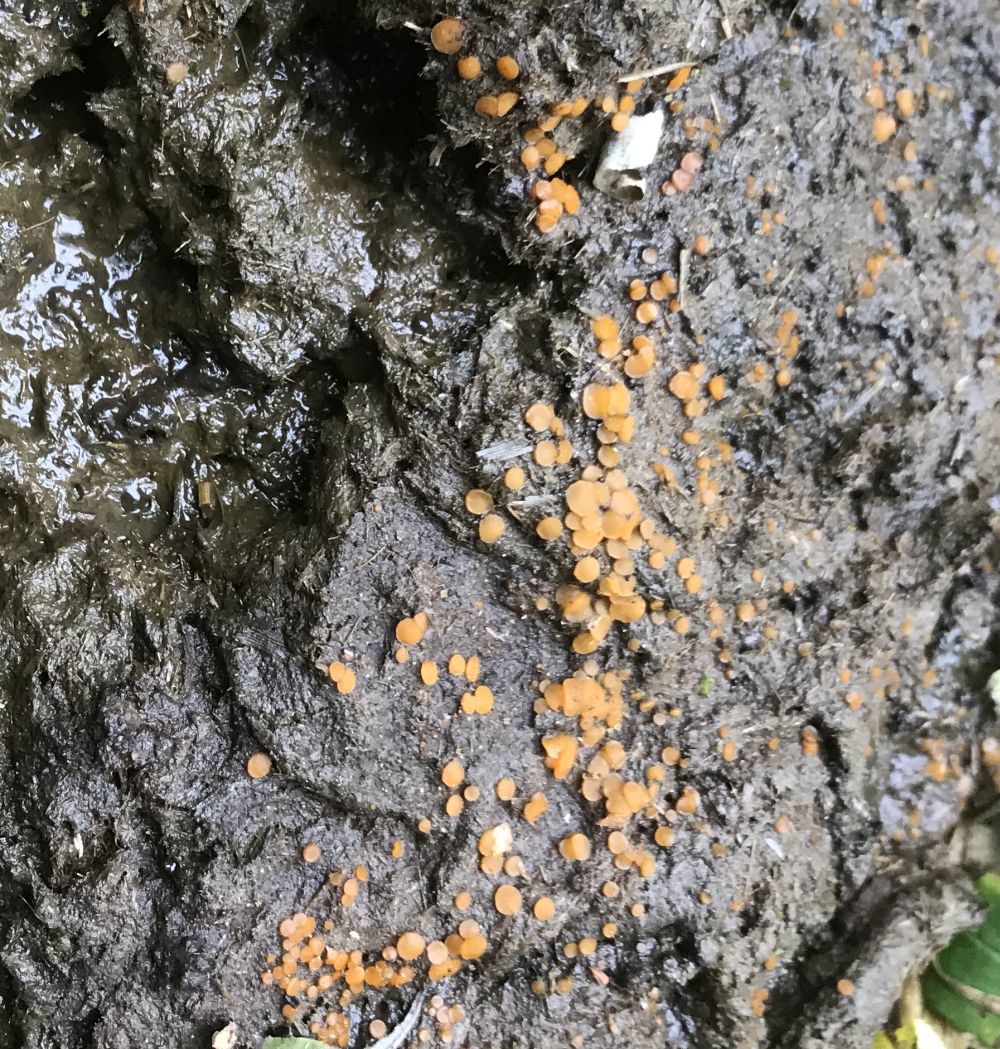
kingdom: Fungi
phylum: Ascomycota
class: Pezizomycetes
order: Pezizales
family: Pyronemataceae
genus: Cheilymenia
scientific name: Cheilymenia granulata
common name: møgbæger
